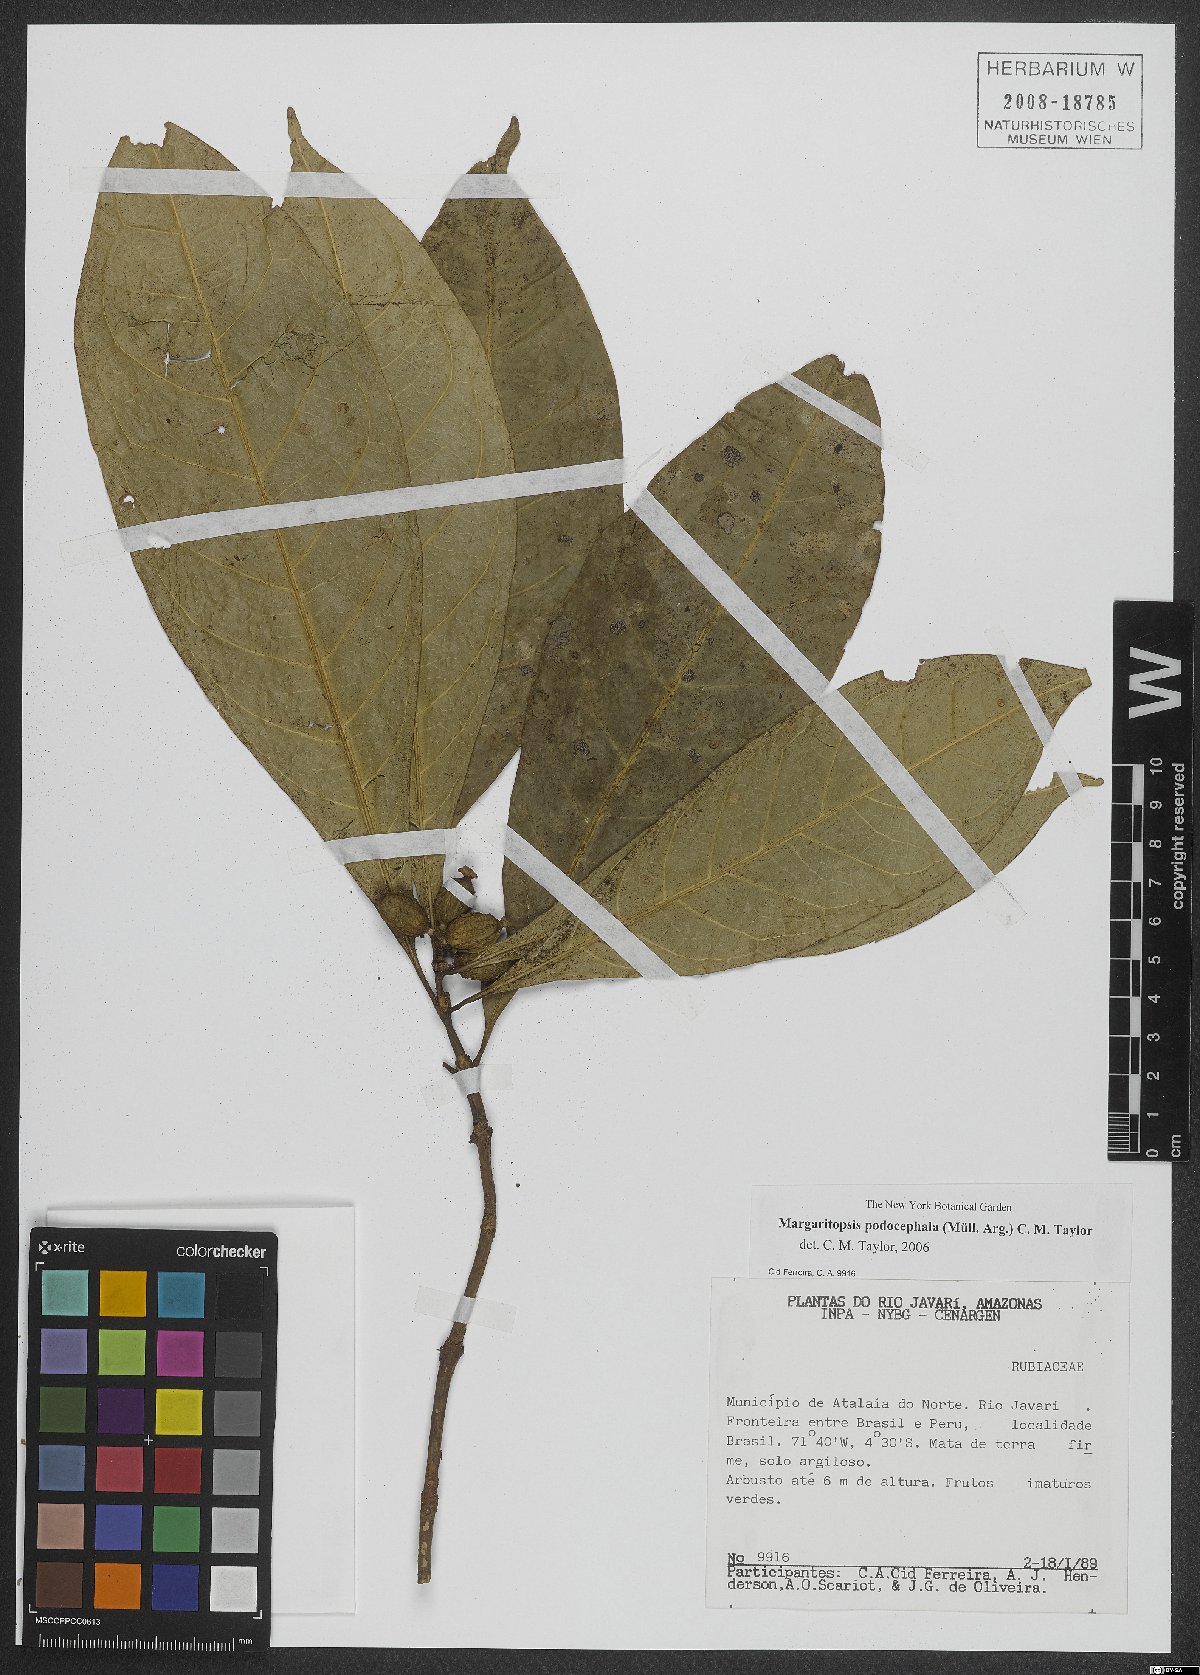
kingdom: Plantae
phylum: Tracheophyta
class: Magnoliopsida
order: Gentianales
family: Rubiaceae
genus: Eumachia
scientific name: Eumachia podocephala
